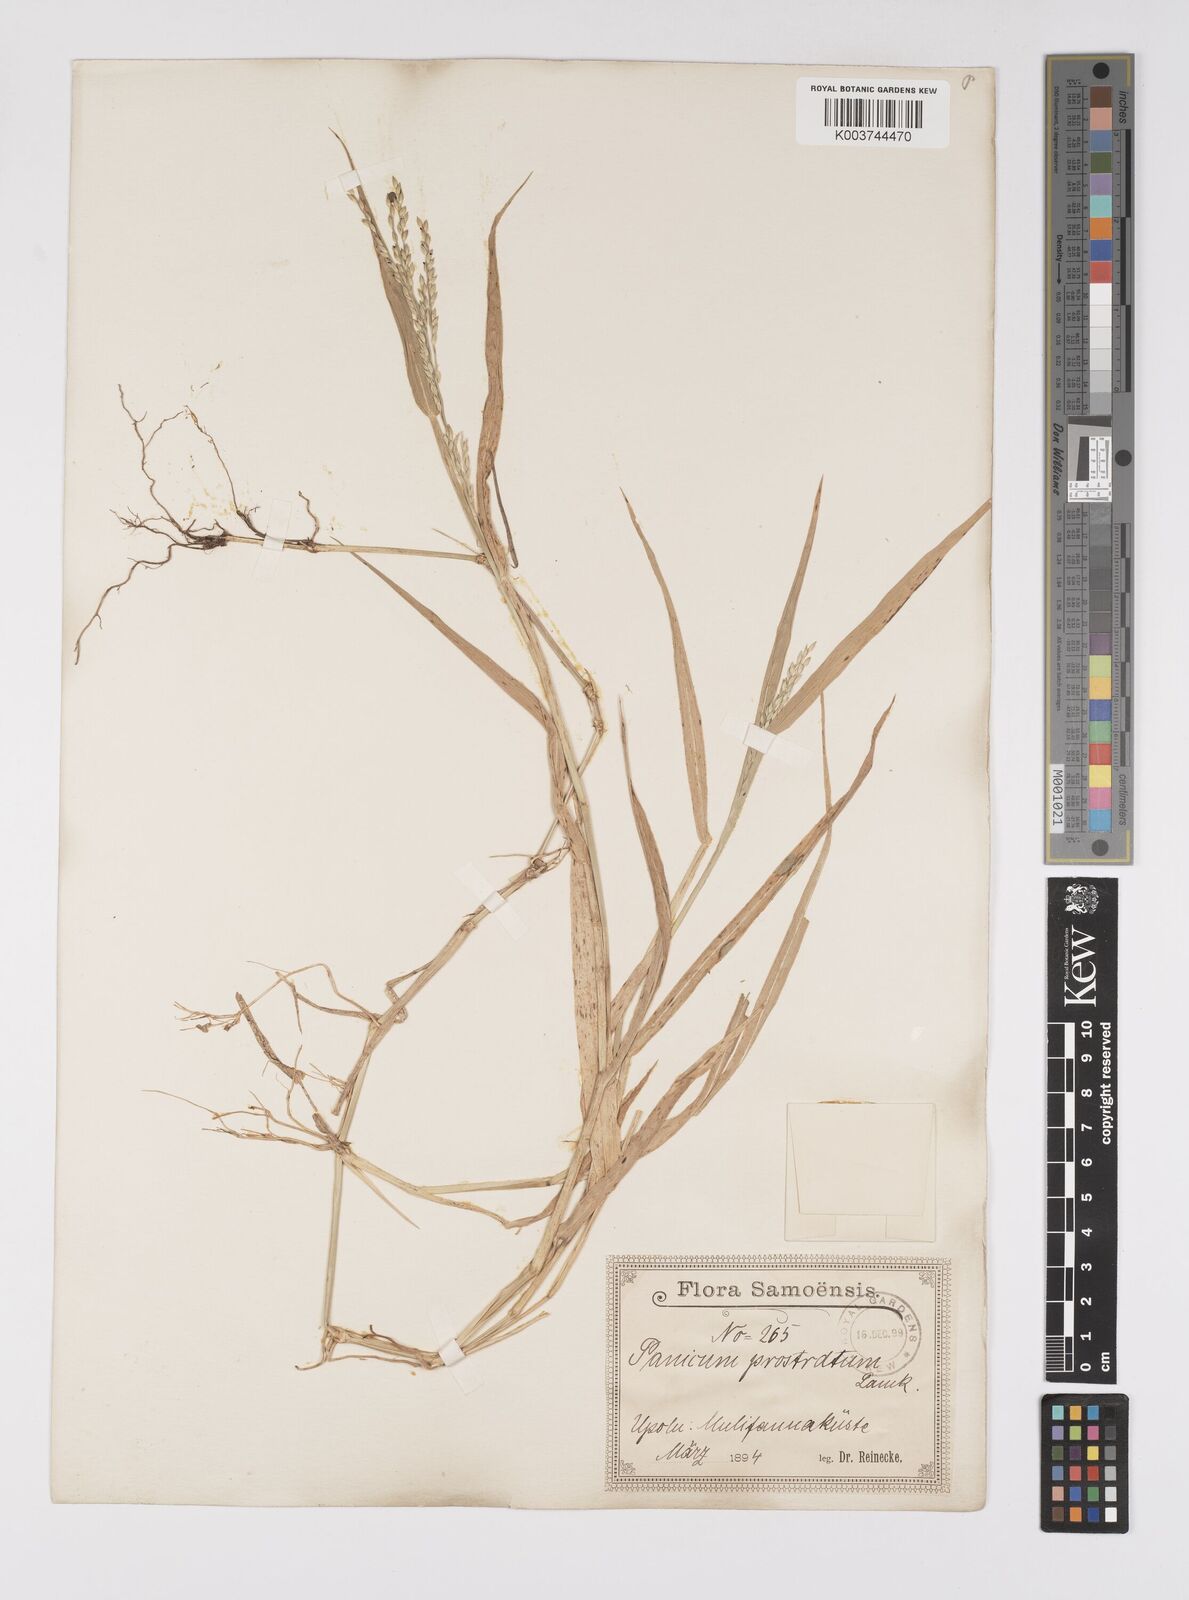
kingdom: Plantae
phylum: Tracheophyta
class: Liliopsida
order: Poales
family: Poaceae
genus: Urochloa
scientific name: Urochloa glumaris
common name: Thurston grass
